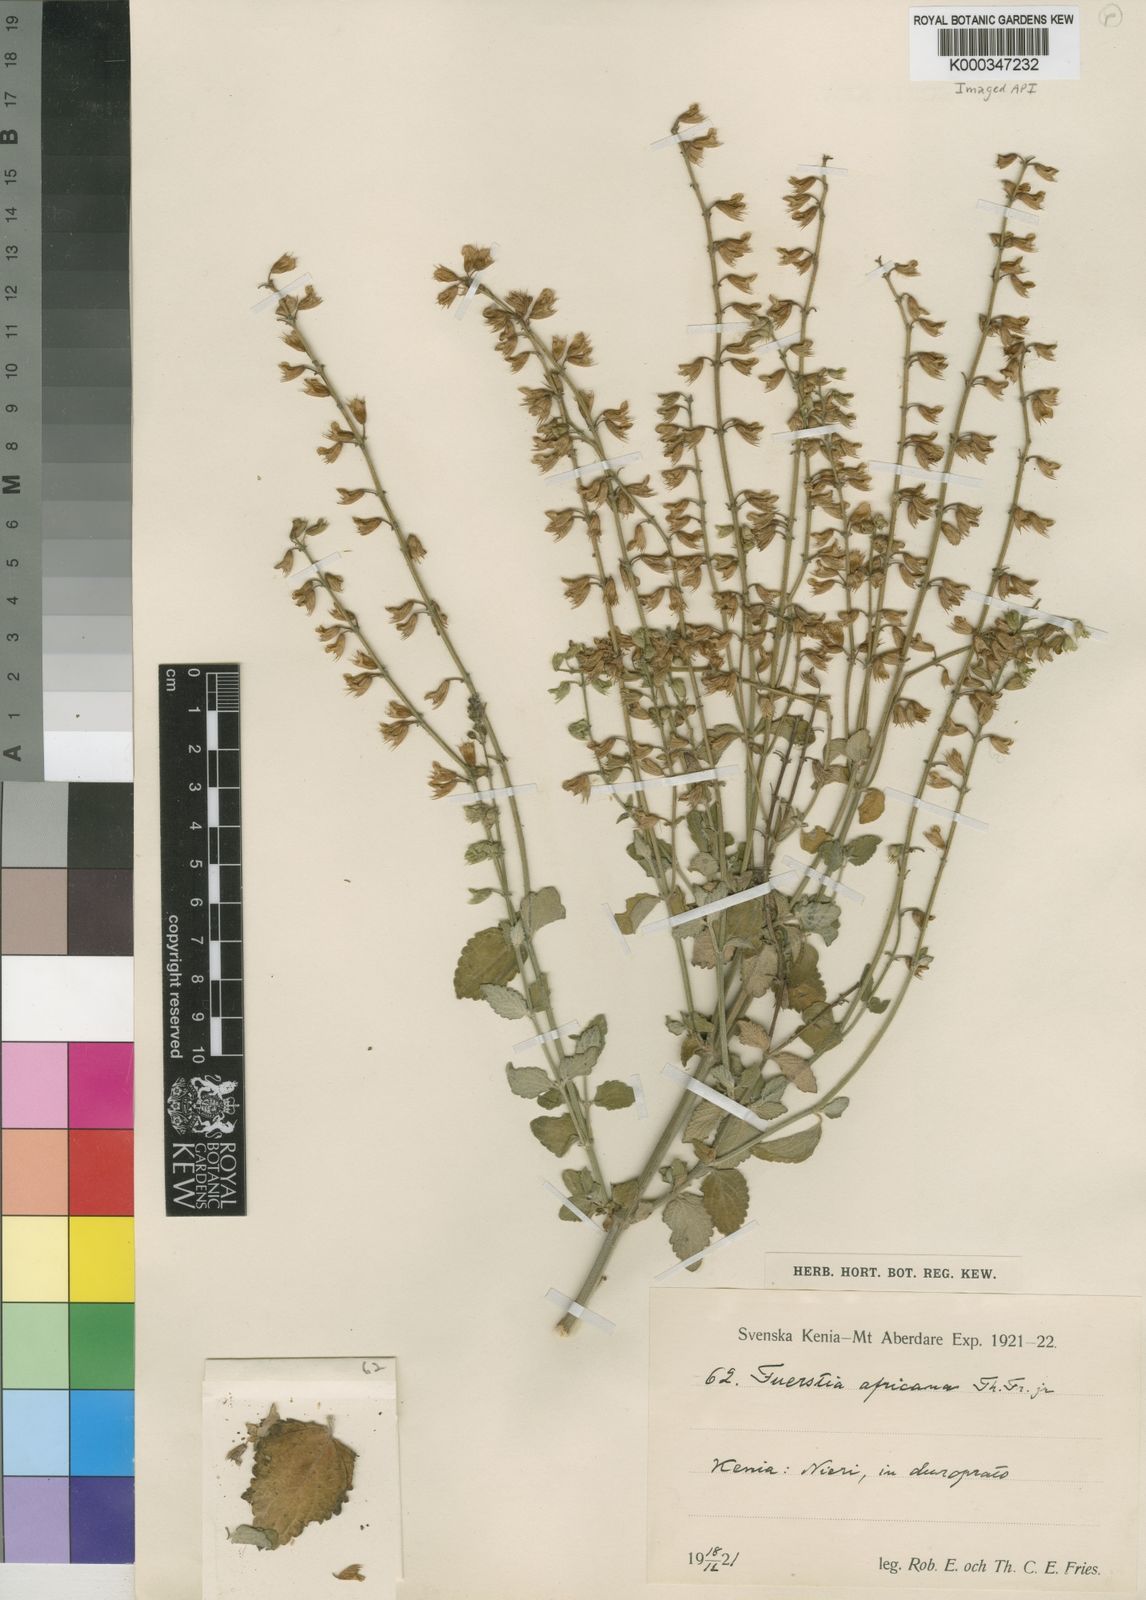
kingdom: Plantae
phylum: Tracheophyta
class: Magnoliopsida
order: Lamiales
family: Lamiaceae
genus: Fuerstia
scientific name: Fuerstia africana
